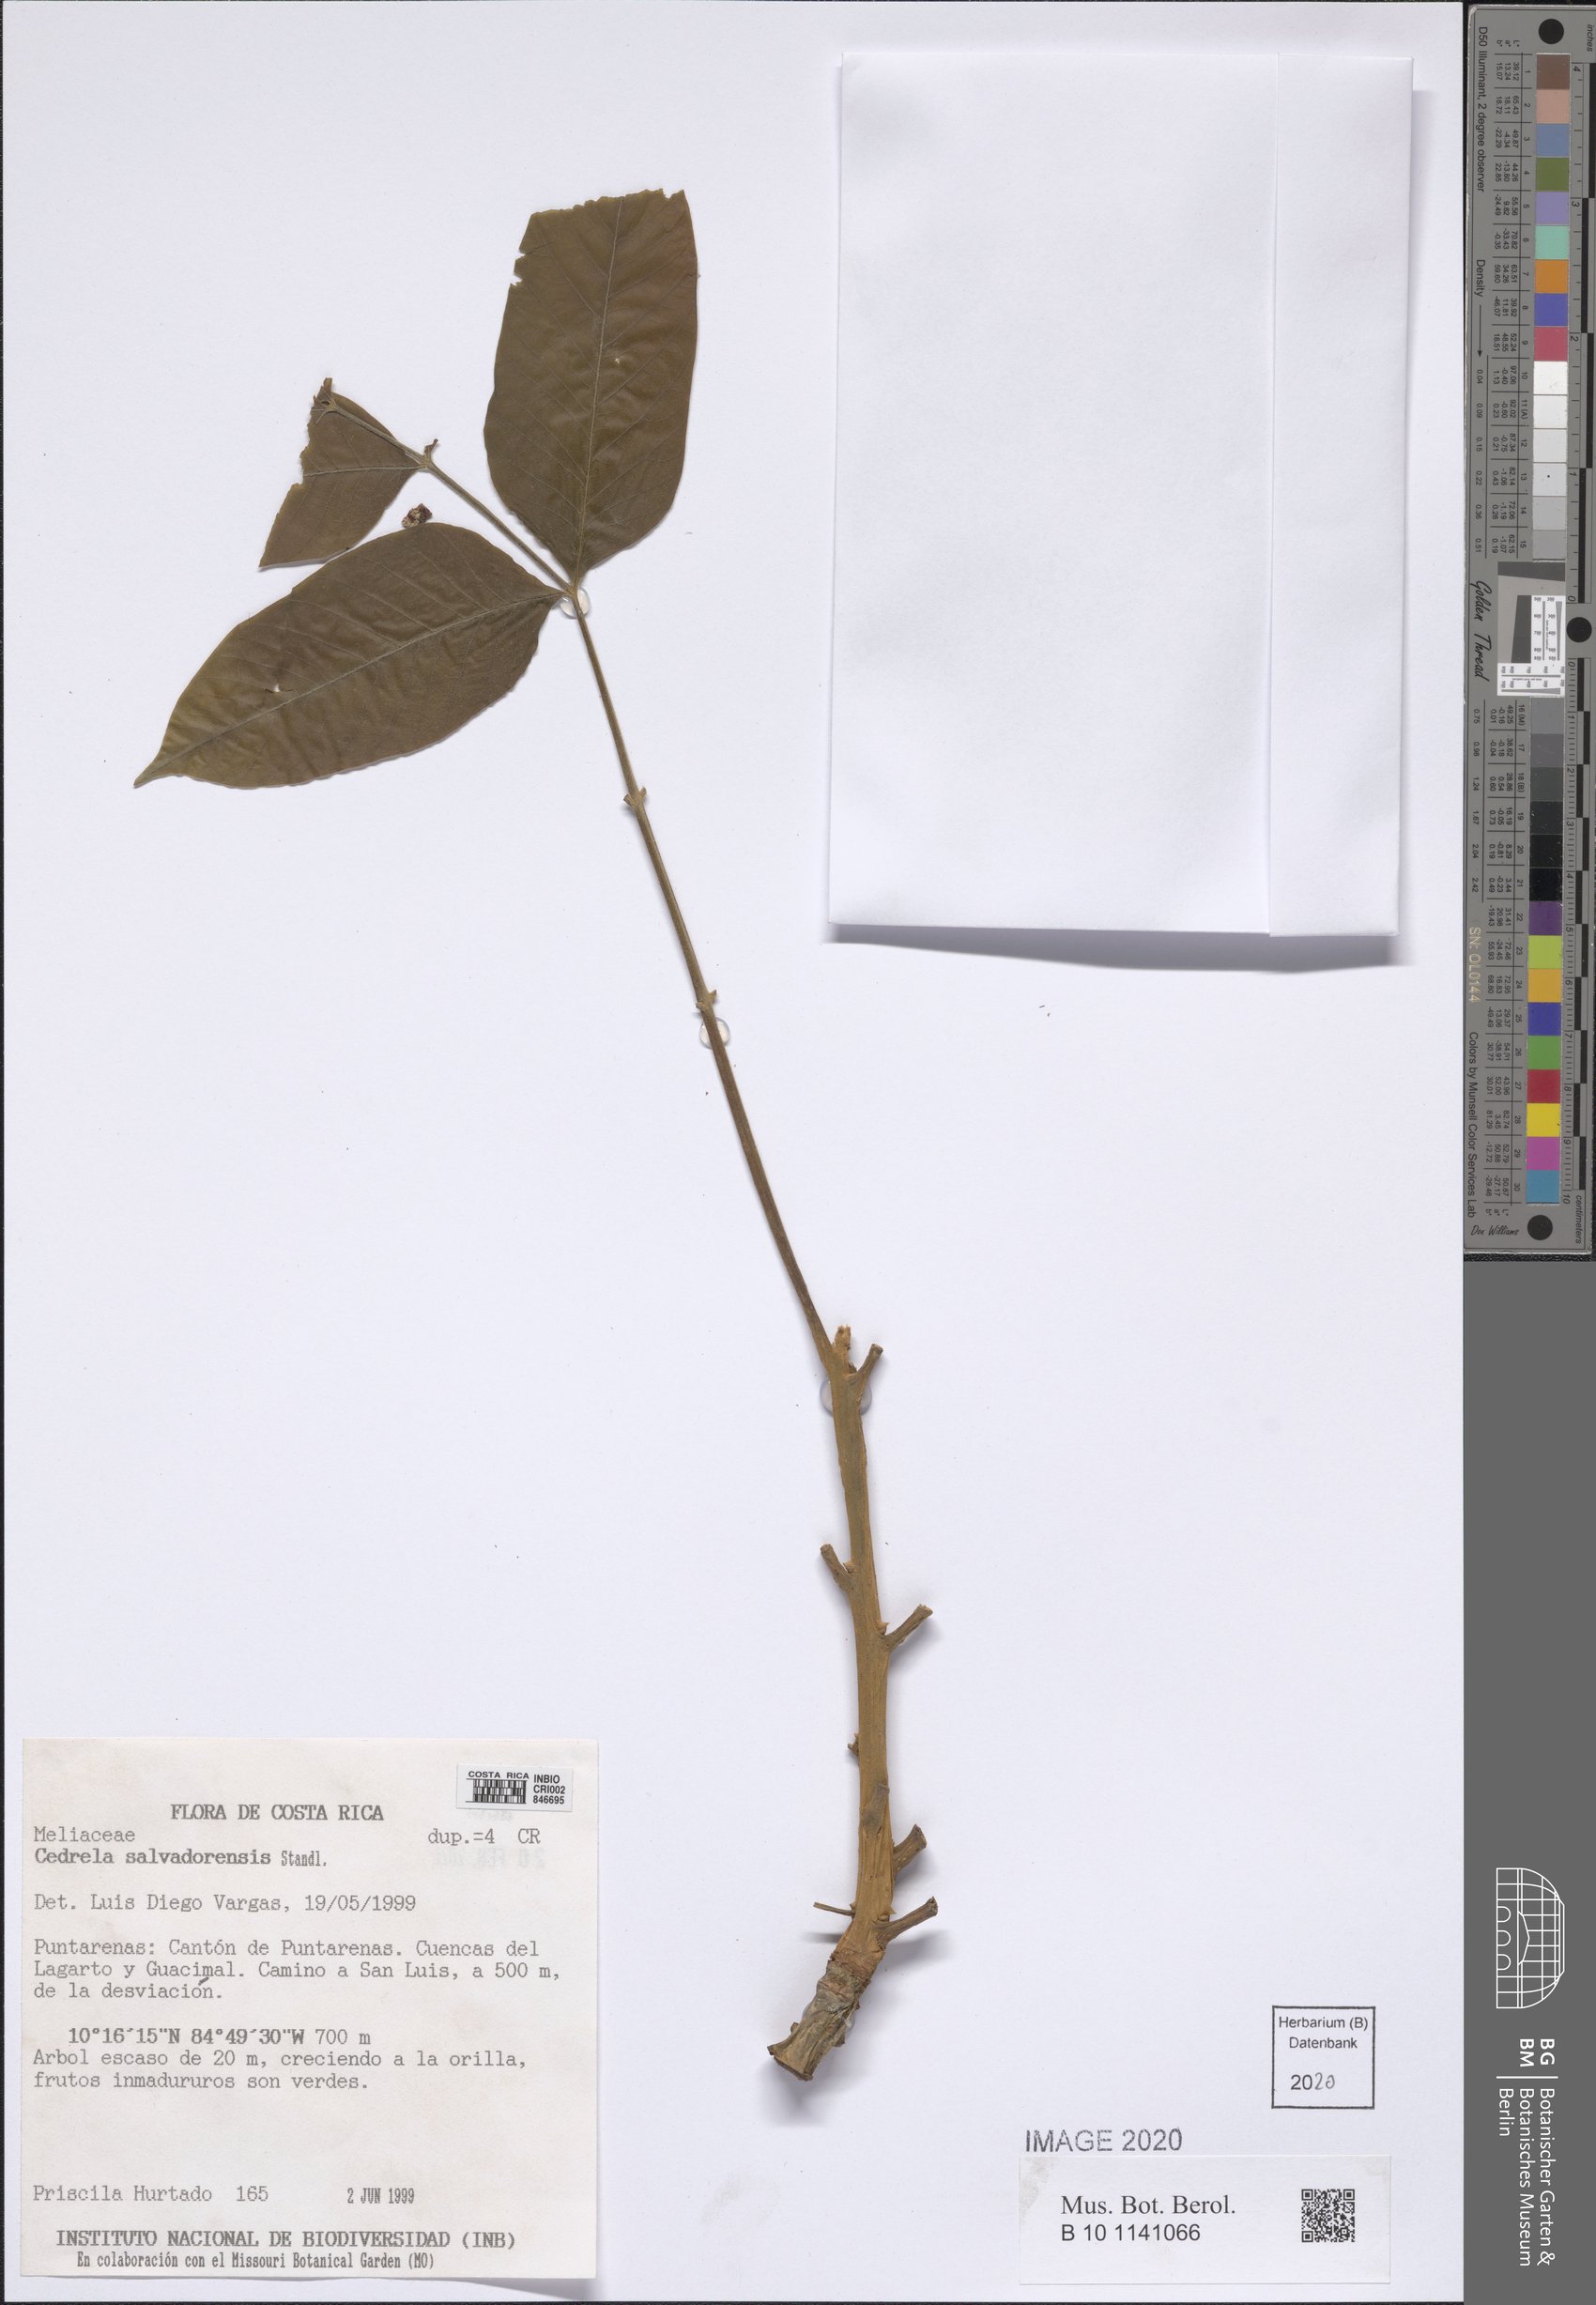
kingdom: Plantae
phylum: Tracheophyta
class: Magnoliopsida
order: Sapindales
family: Meliaceae
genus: Cedrela
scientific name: Cedrela salvadorensis
